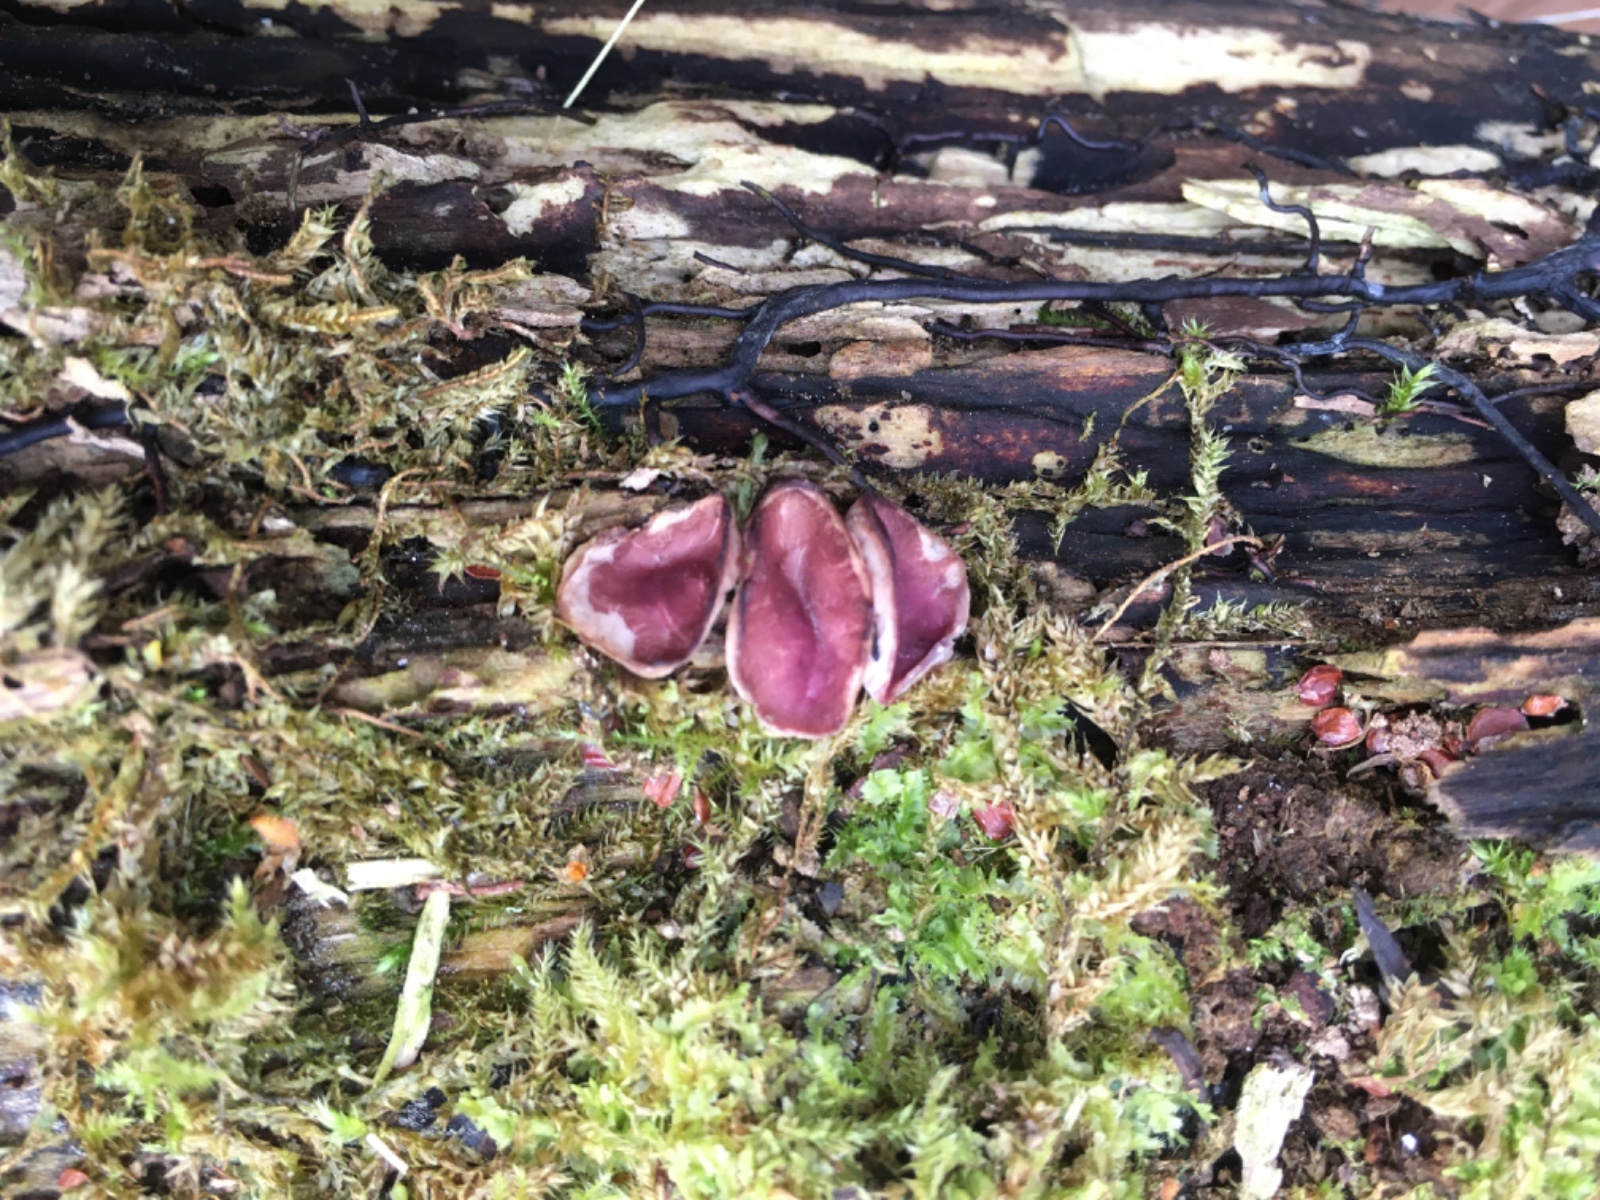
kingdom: Fungi
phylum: Ascomycota
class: Leotiomycetes
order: Helotiales
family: Gelatinodiscaceae
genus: Ascocoryne
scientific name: Ascocoryne cylichnium
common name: stor sejskive
